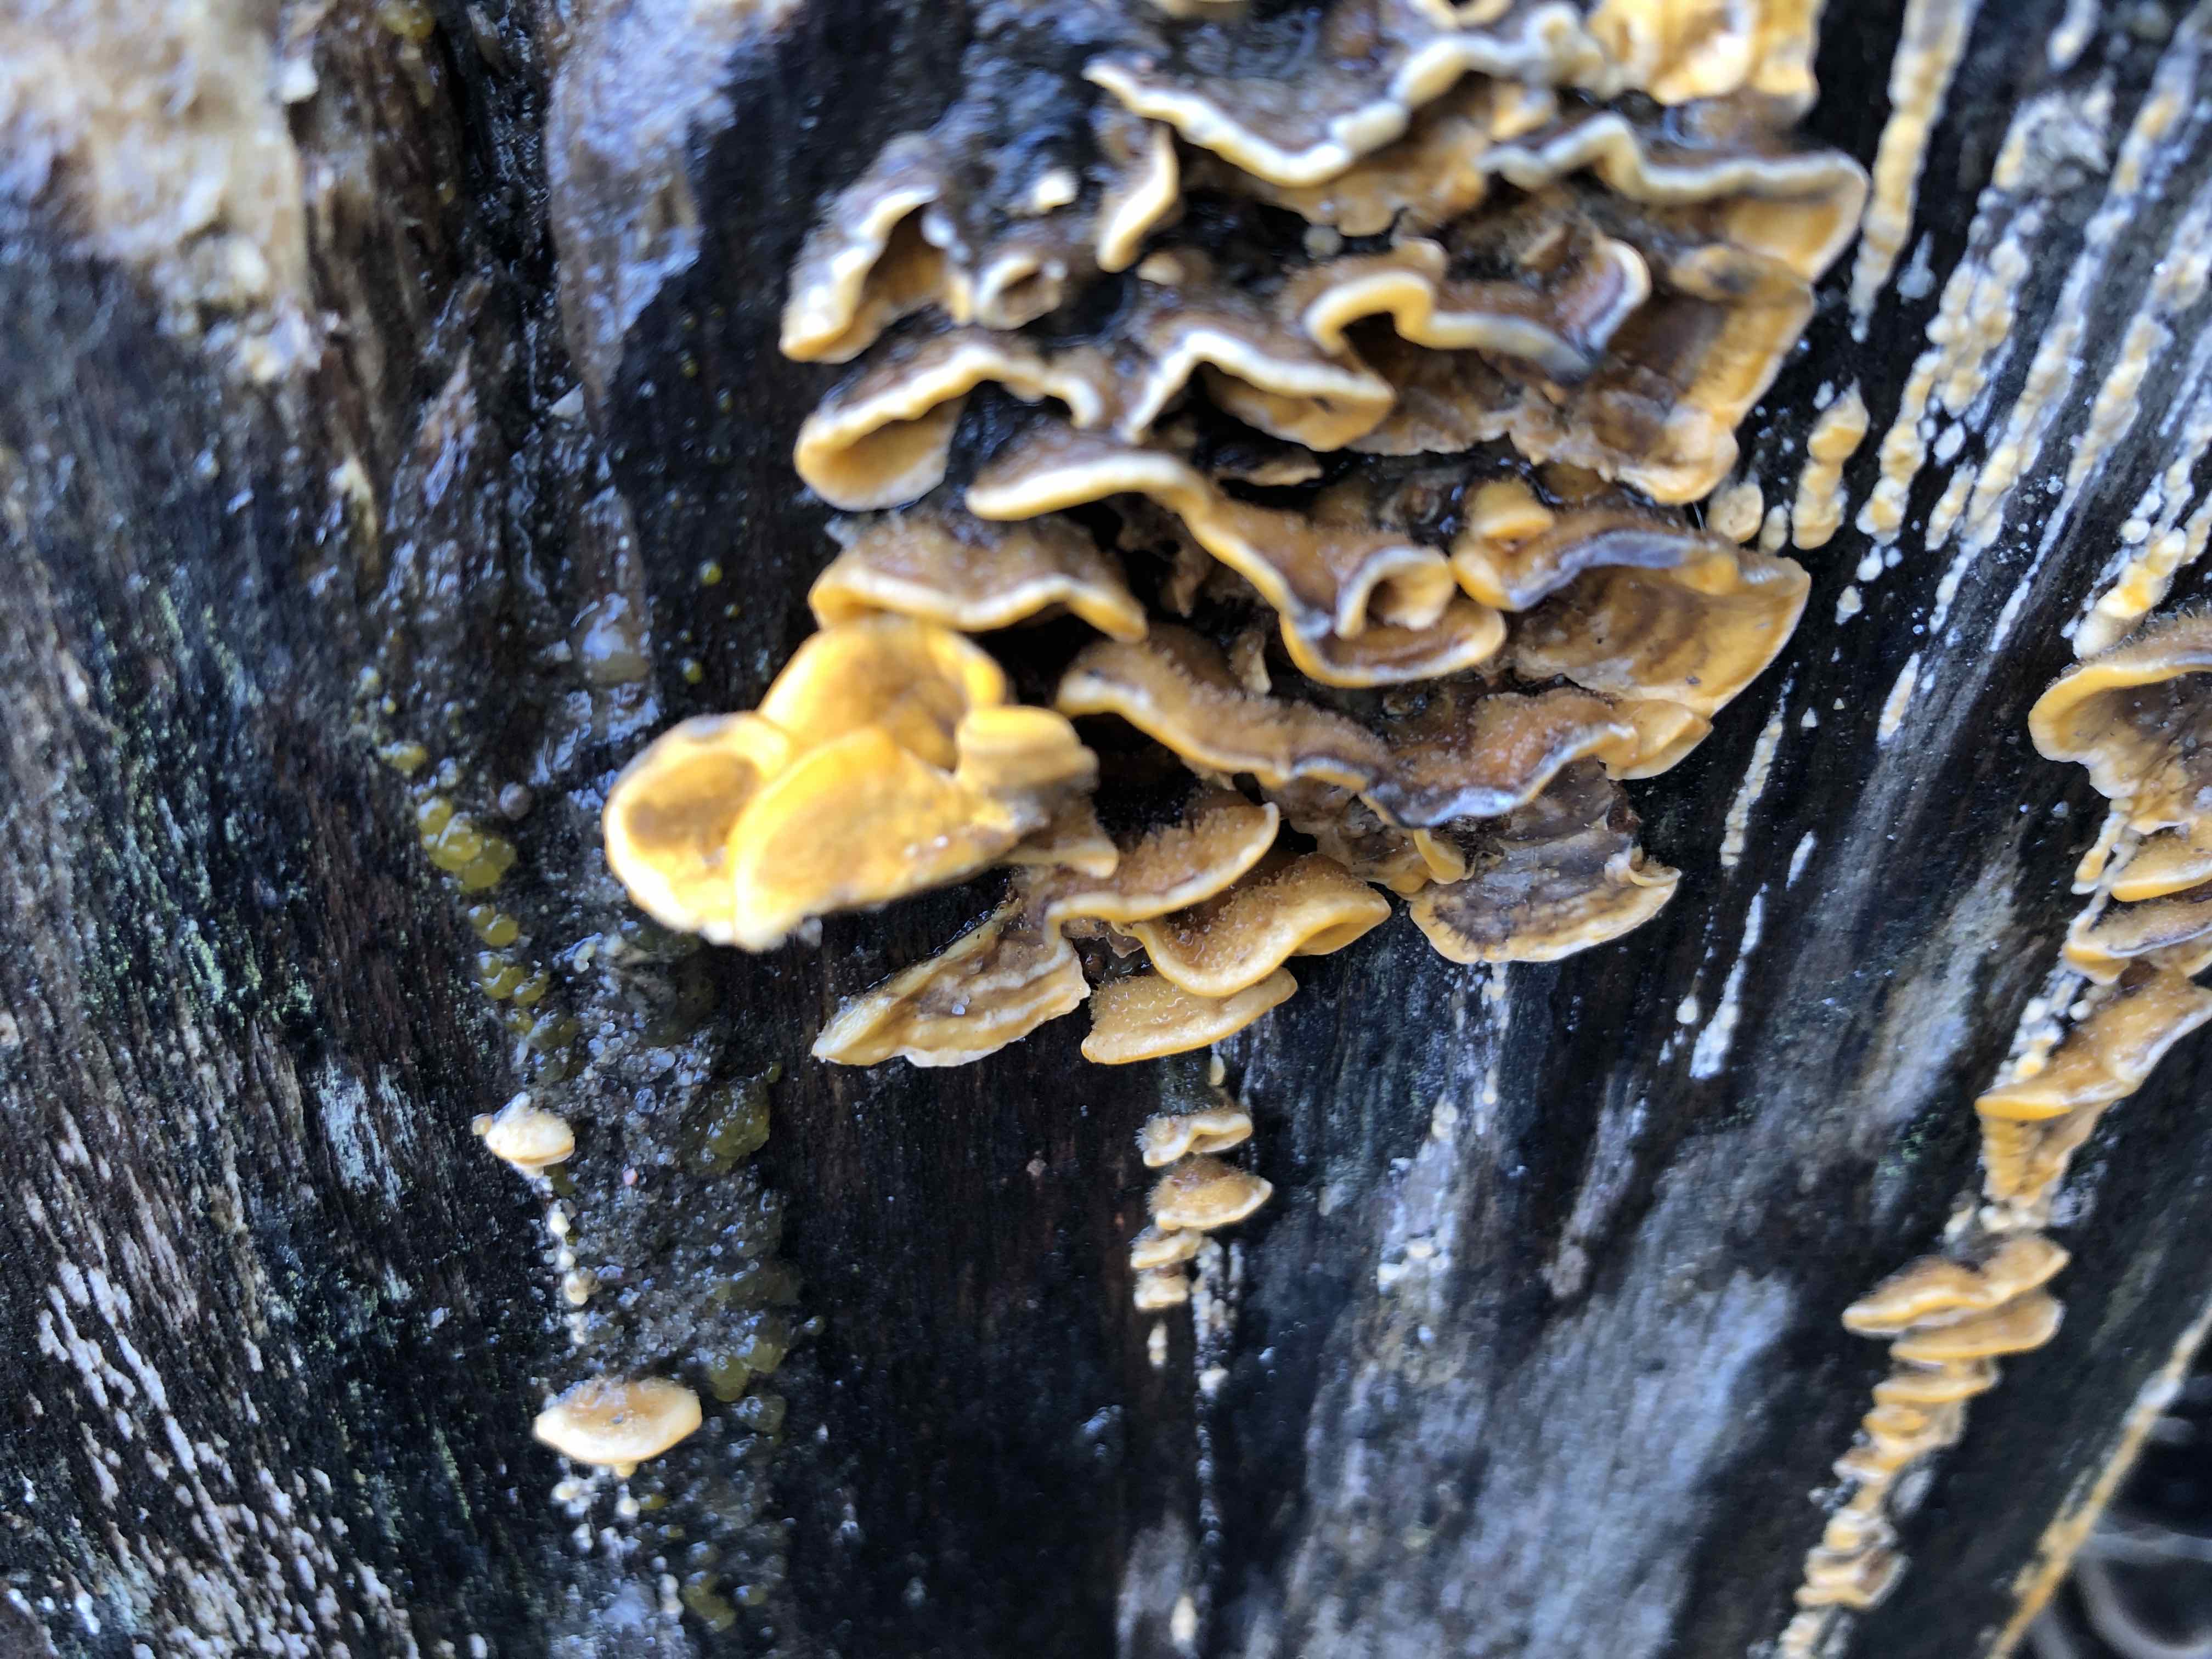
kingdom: Fungi
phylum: Basidiomycota
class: Agaricomycetes
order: Russulales
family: Stereaceae
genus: Stereum
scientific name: Stereum hirsutum
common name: håret lædersvamp
